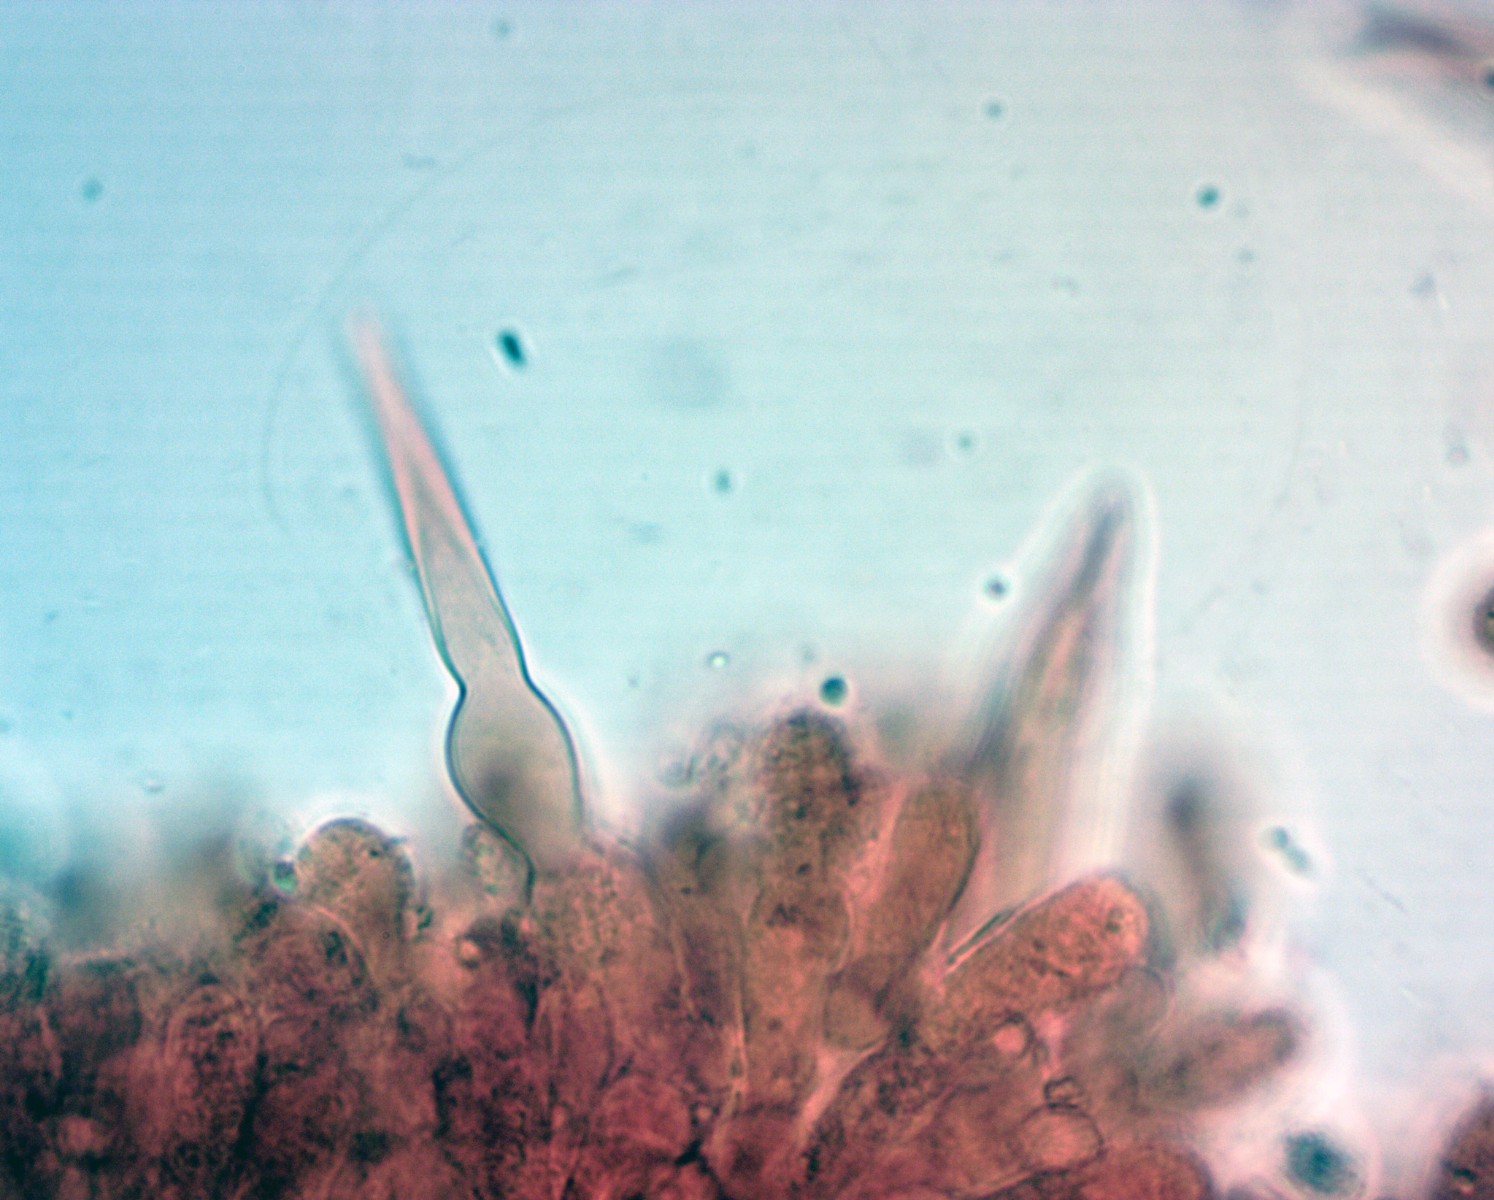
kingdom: Fungi
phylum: Basidiomycota
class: Agaricomycetes
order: Agaricales
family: Tricholomataceae
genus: Melanoleuca
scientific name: Melanoleuca
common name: munkehat
